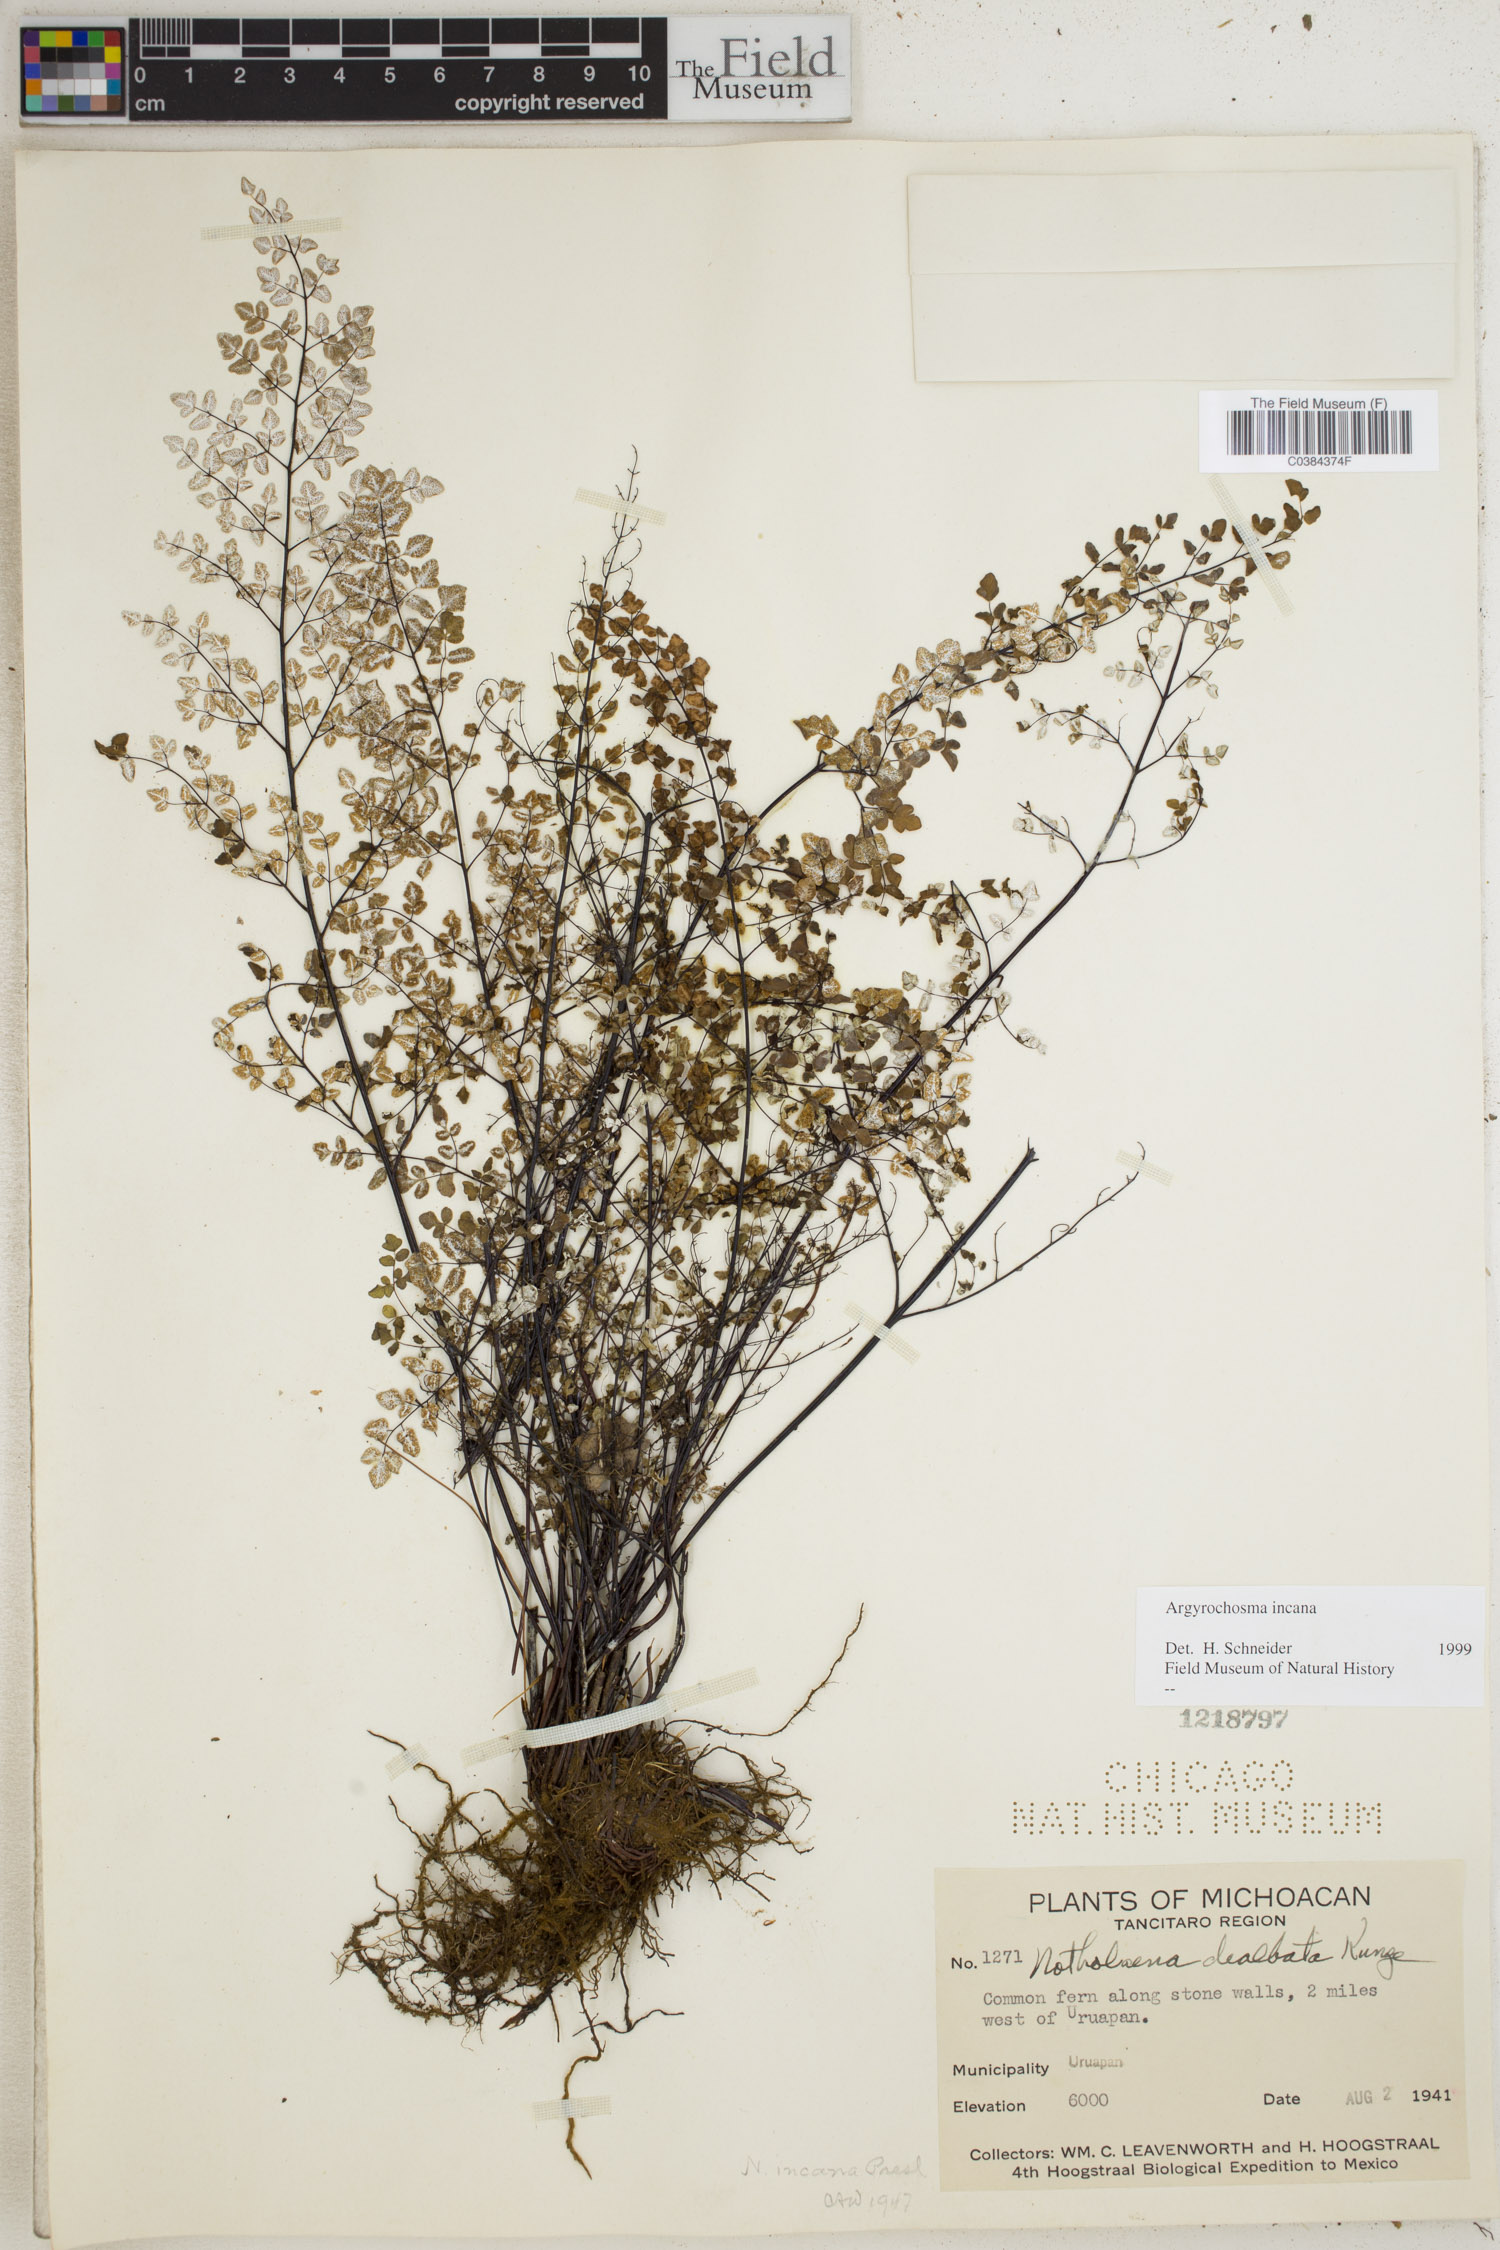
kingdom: Plantae
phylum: Tracheophyta
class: Polypodiopsida
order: Polypodiales
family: Pteridaceae
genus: Argyrochosma
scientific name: Argyrochosma incana
